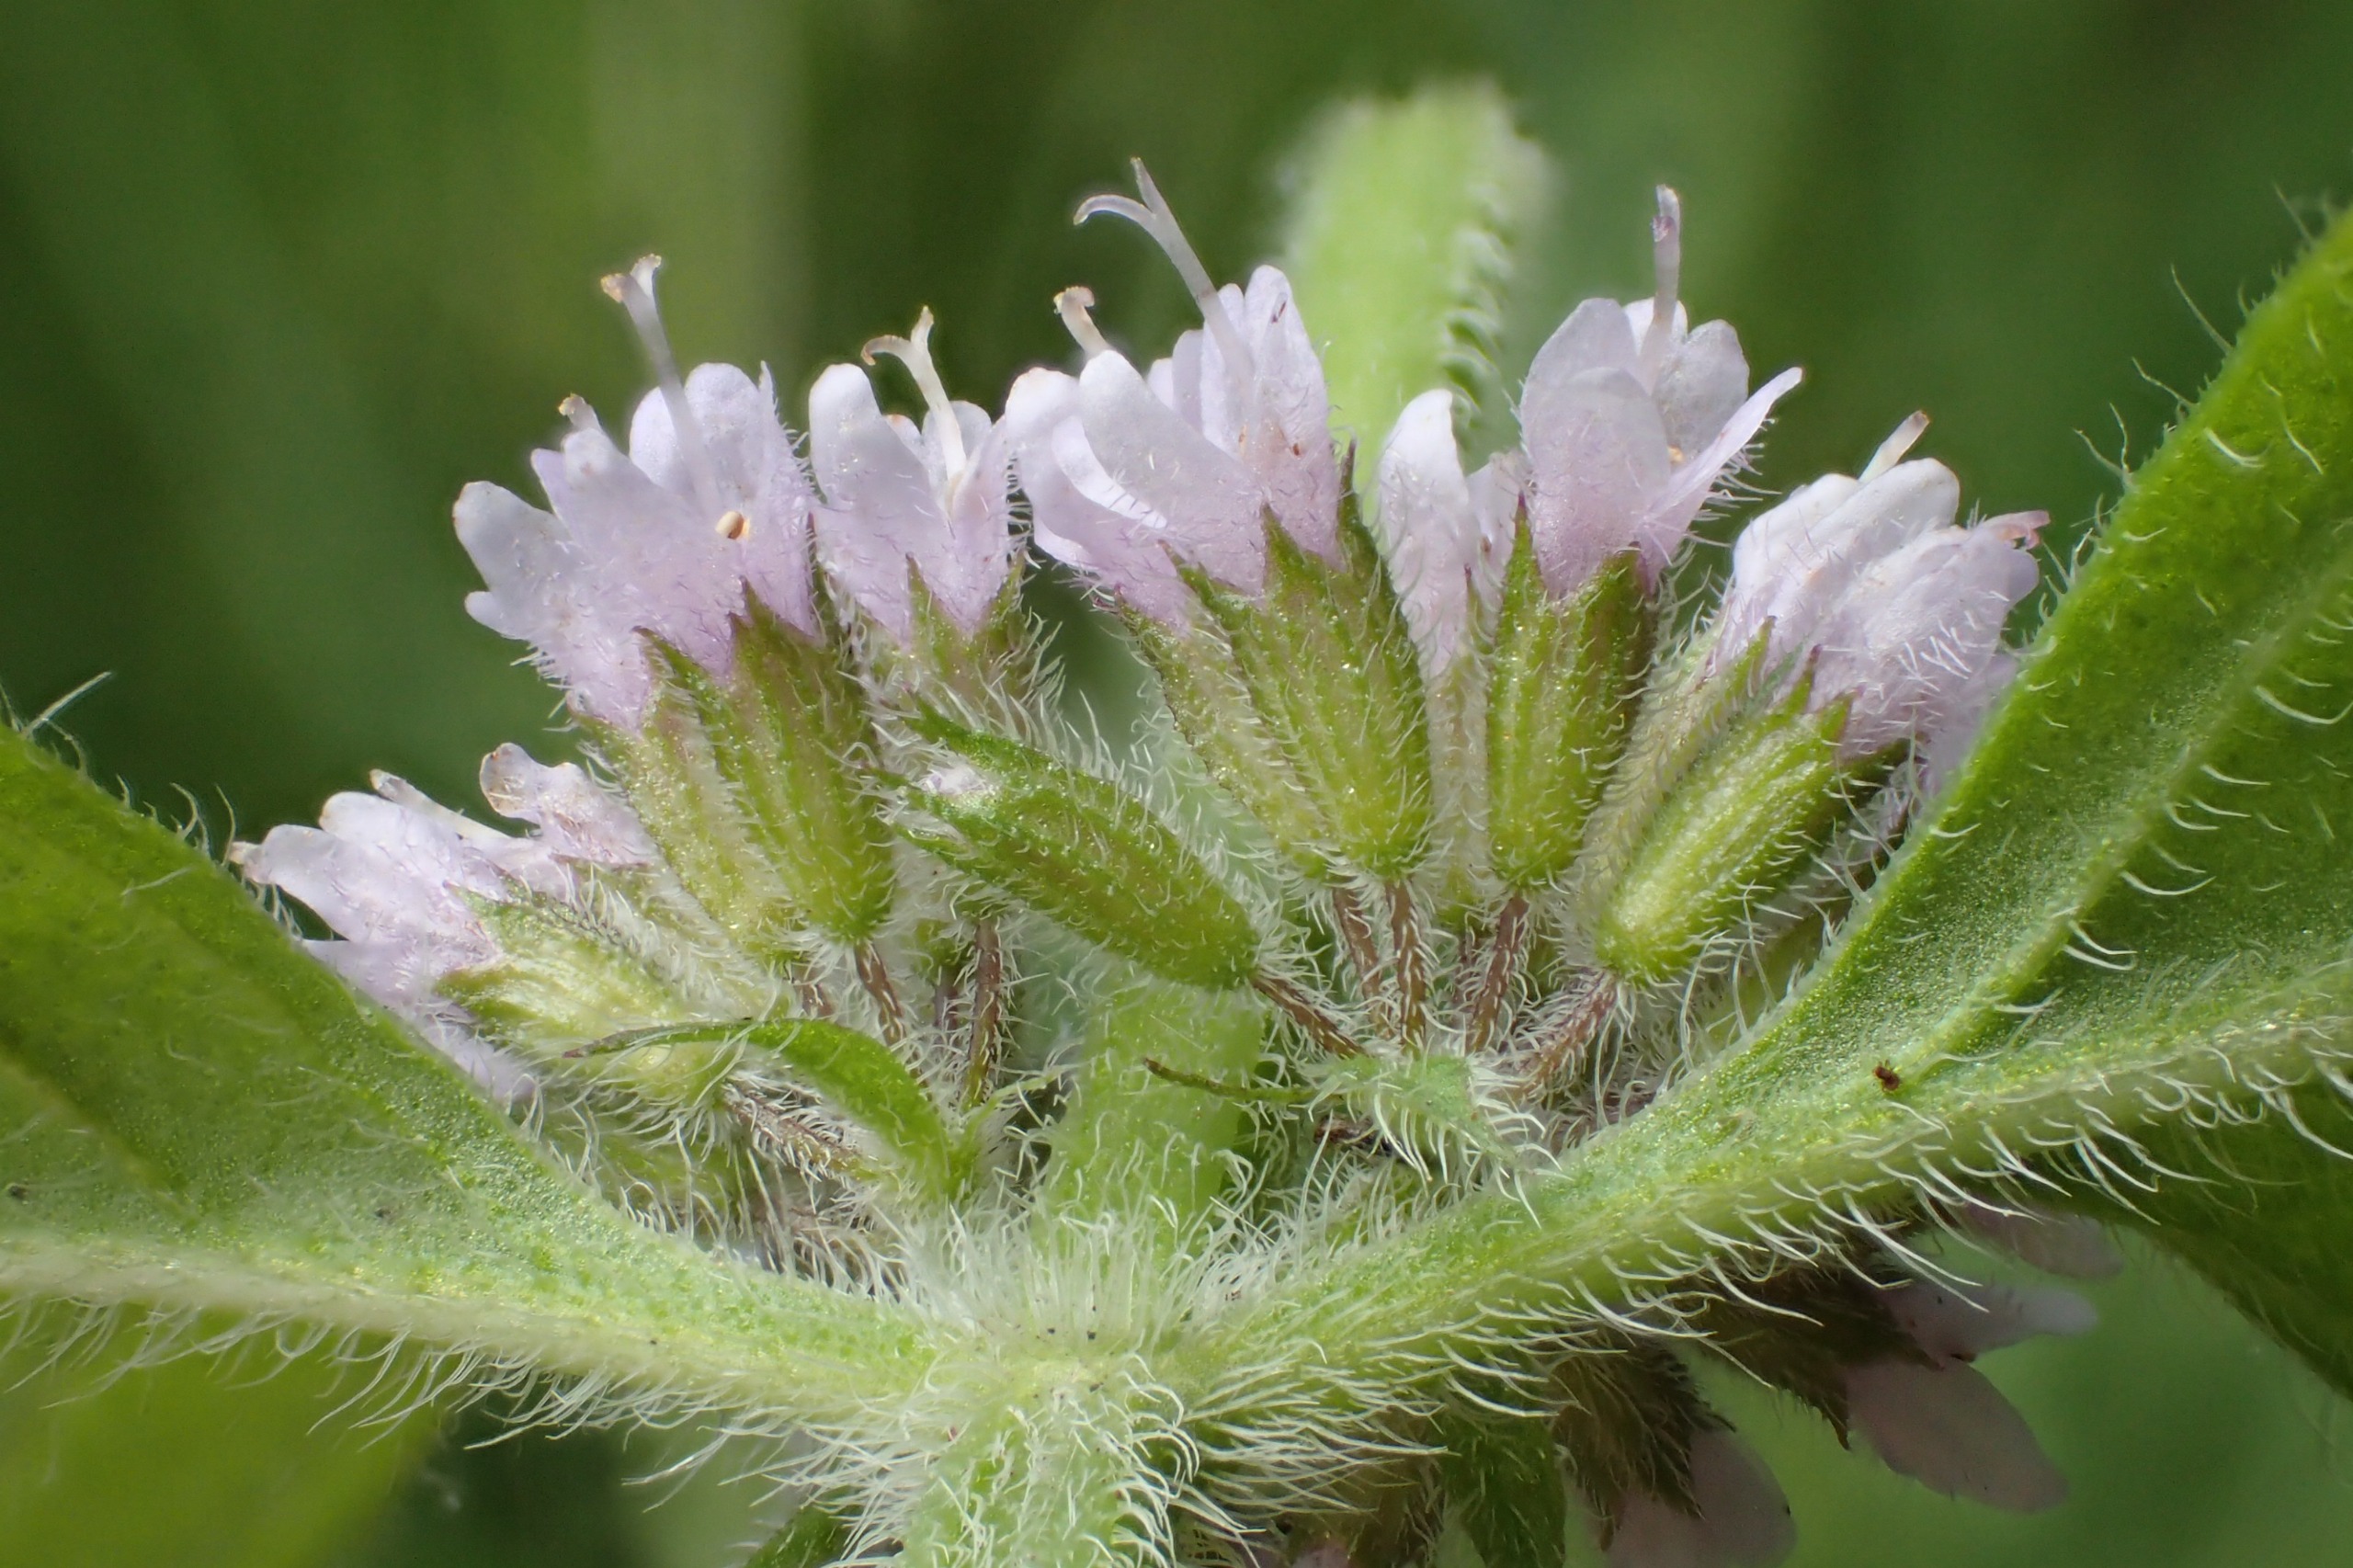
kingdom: Plantae
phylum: Tracheophyta
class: Magnoliopsida
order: Lamiales
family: Lamiaceae
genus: Mentha
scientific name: Mentha verticillata
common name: Krans-mynte
